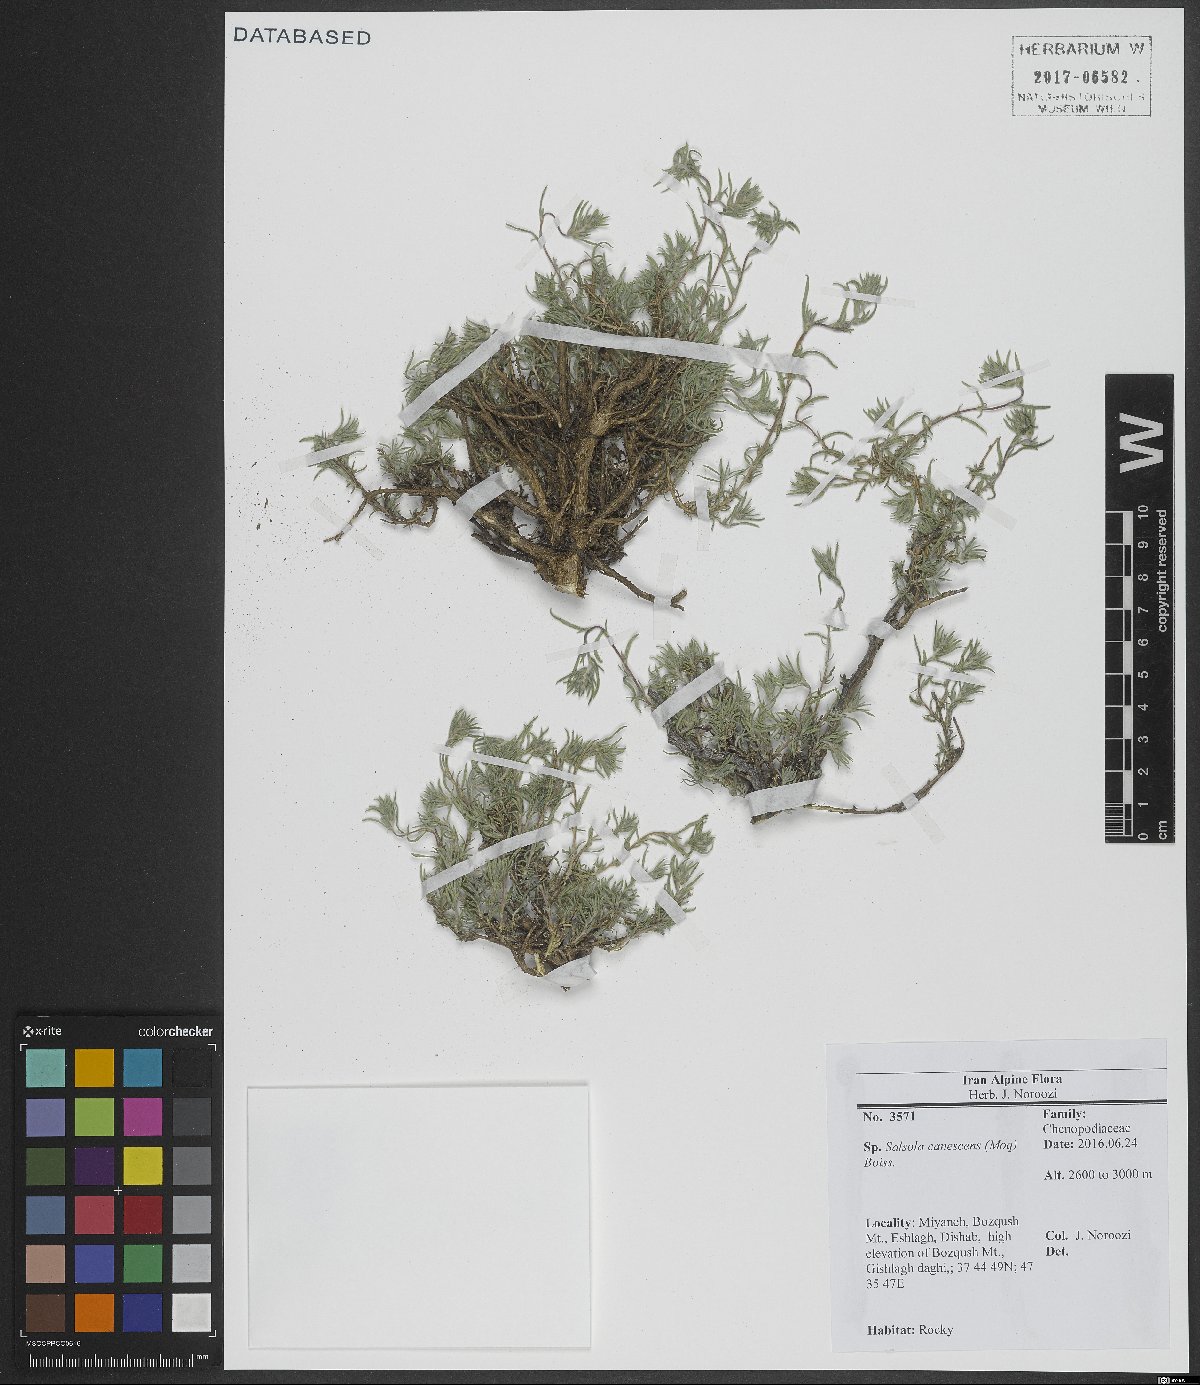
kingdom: Plantae
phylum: Tracheophyta
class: Magnoliopsida
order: Caryophyllales
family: Amaranthaceae
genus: Akhania
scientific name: Akhania canescens
